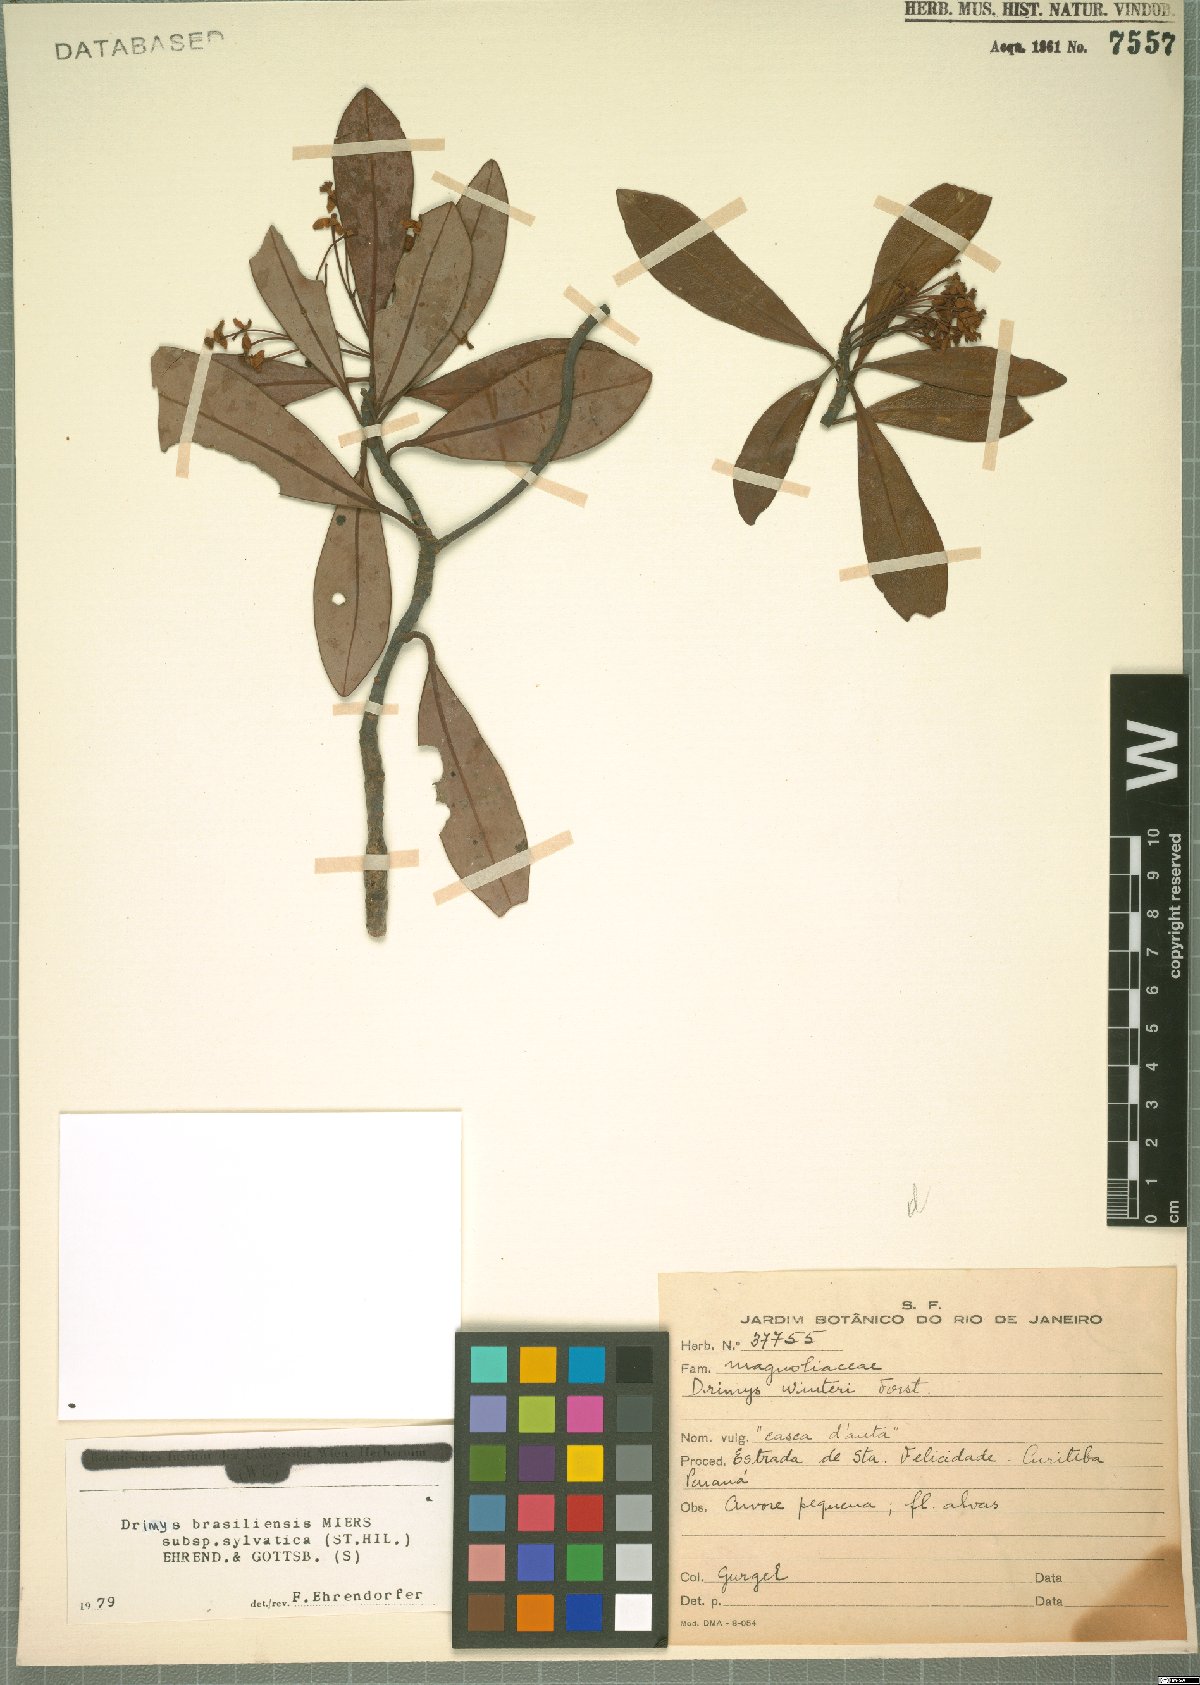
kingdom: Plantae
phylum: Tracheophyta
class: Magnoliopsida
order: Canellales
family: Winteraceae
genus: Drimys
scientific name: Drimys brasiliensis
